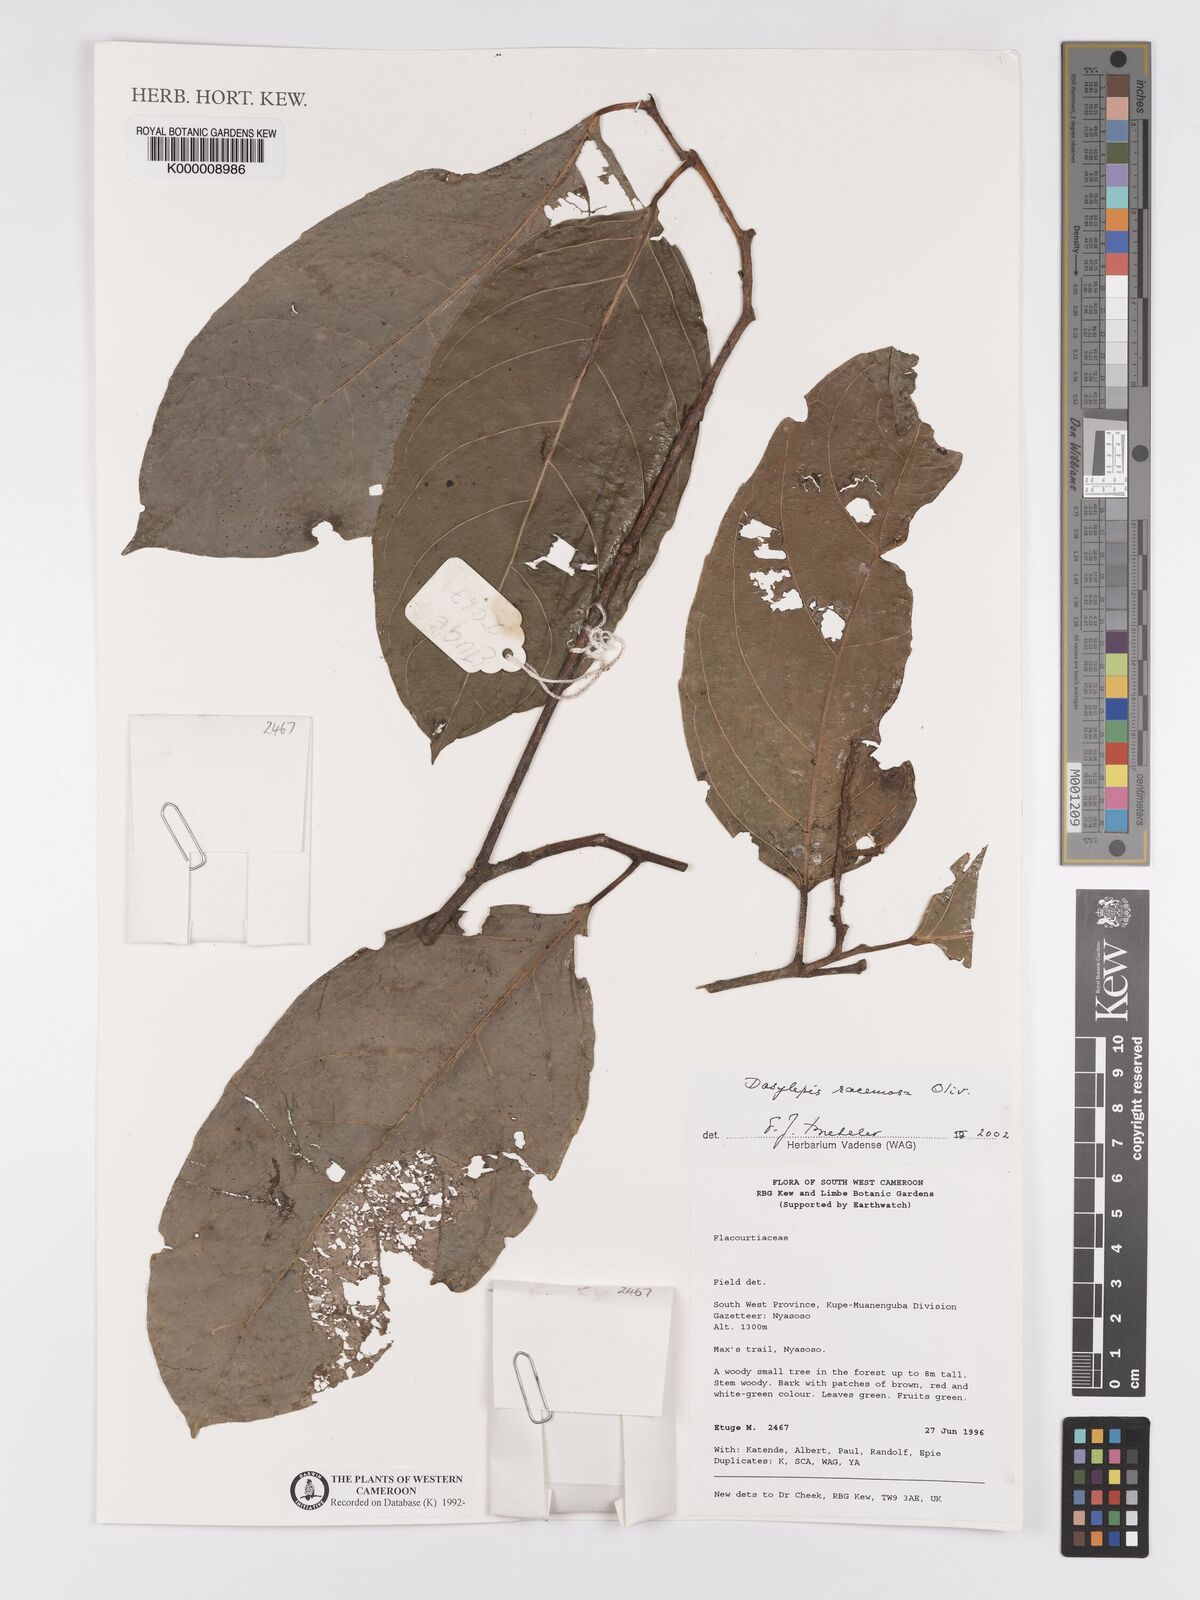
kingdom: Plantae
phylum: Tracheophyta
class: Magnoliopsida
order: Malpighiales
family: Achariaceae
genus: Dasylepis
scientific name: Dasylepis racemosa
